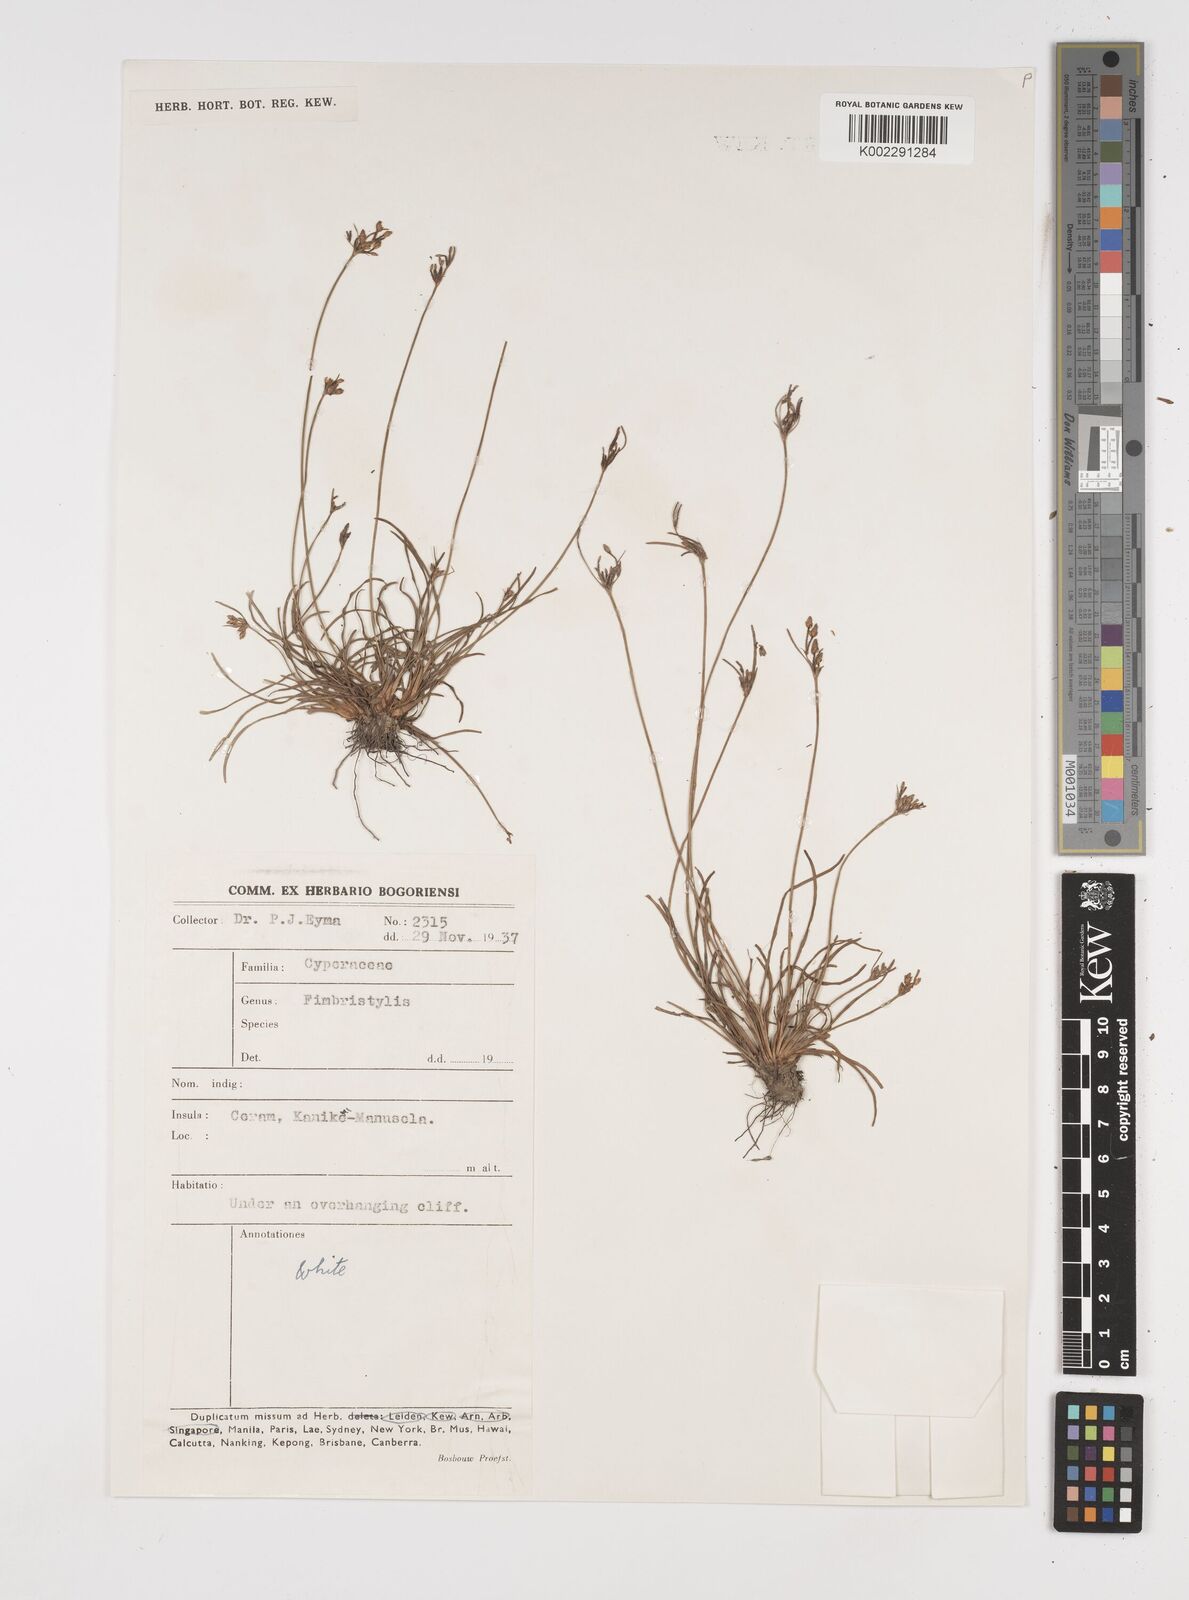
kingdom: Plantae
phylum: Tracheophyta
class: Liliopsida
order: Poales
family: Cyperaceae
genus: Fimbristylis
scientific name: Fimbristylis
